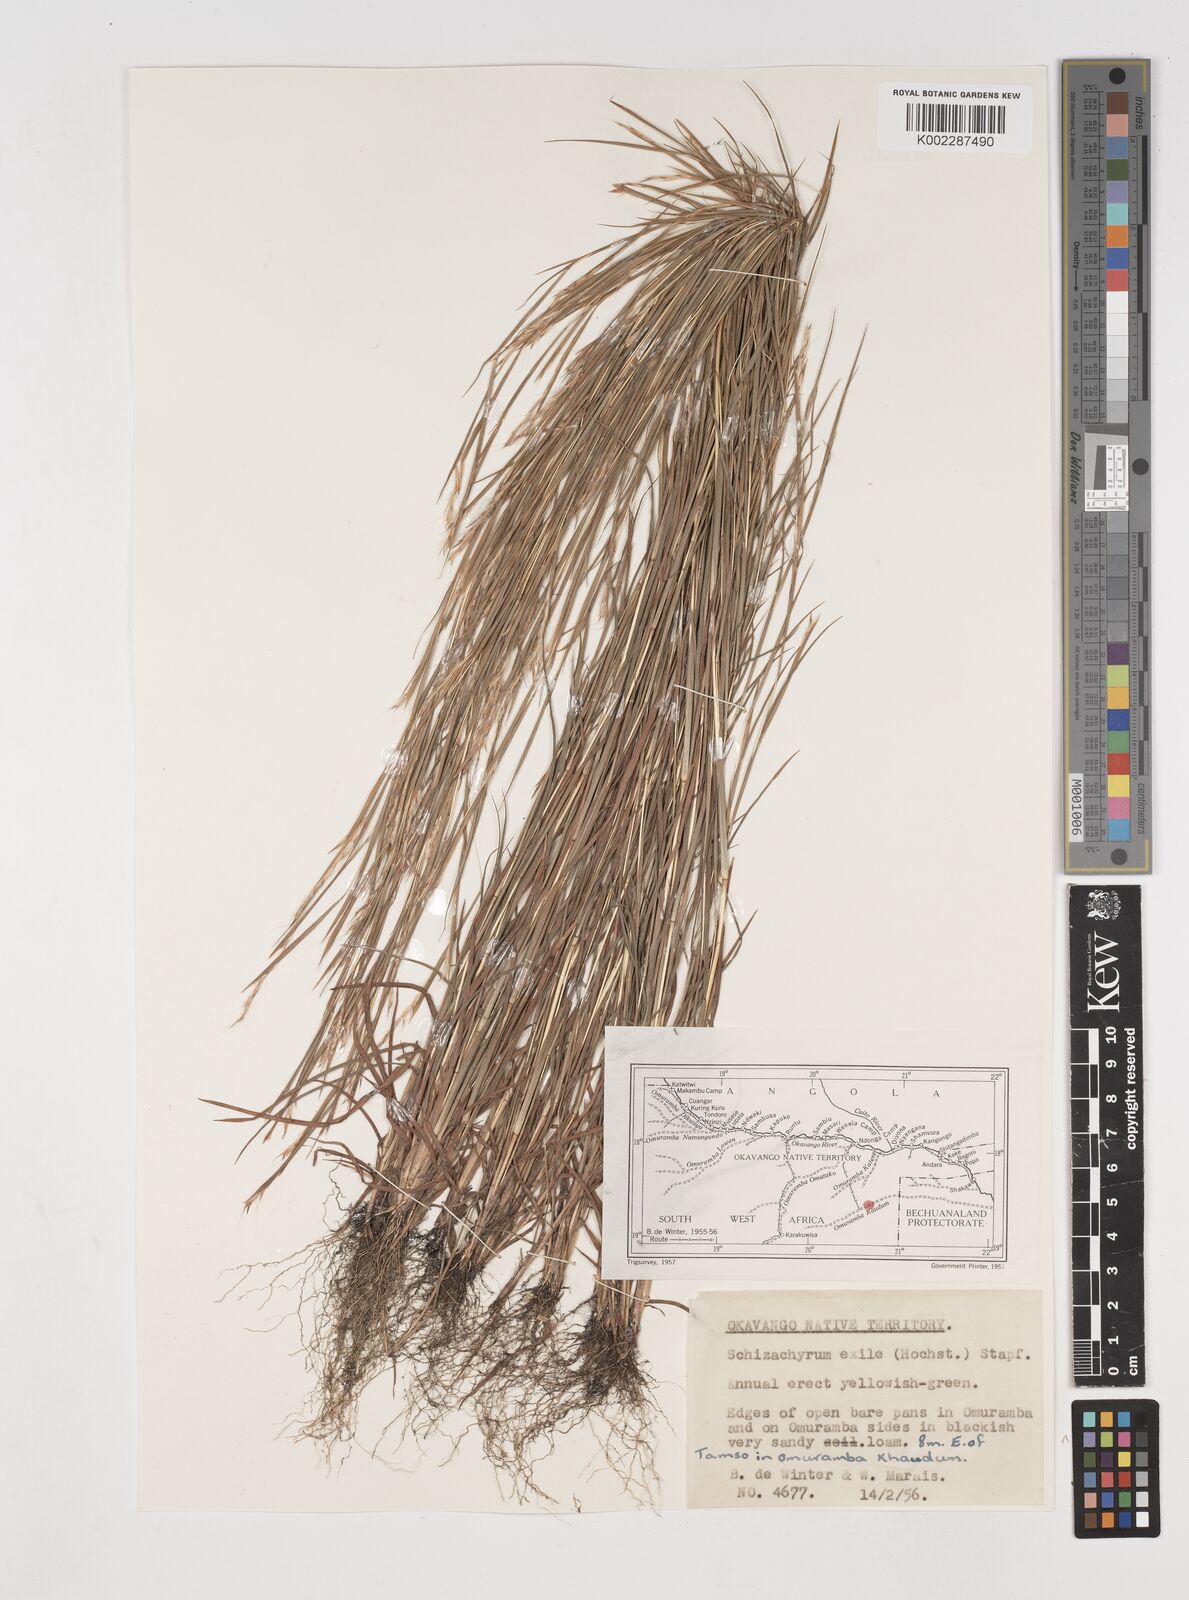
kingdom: Plantae
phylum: Tracheophyta
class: Liliopsida
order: Poales
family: Poaceae
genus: Schizachyrium
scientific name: Schizachyrium exile
